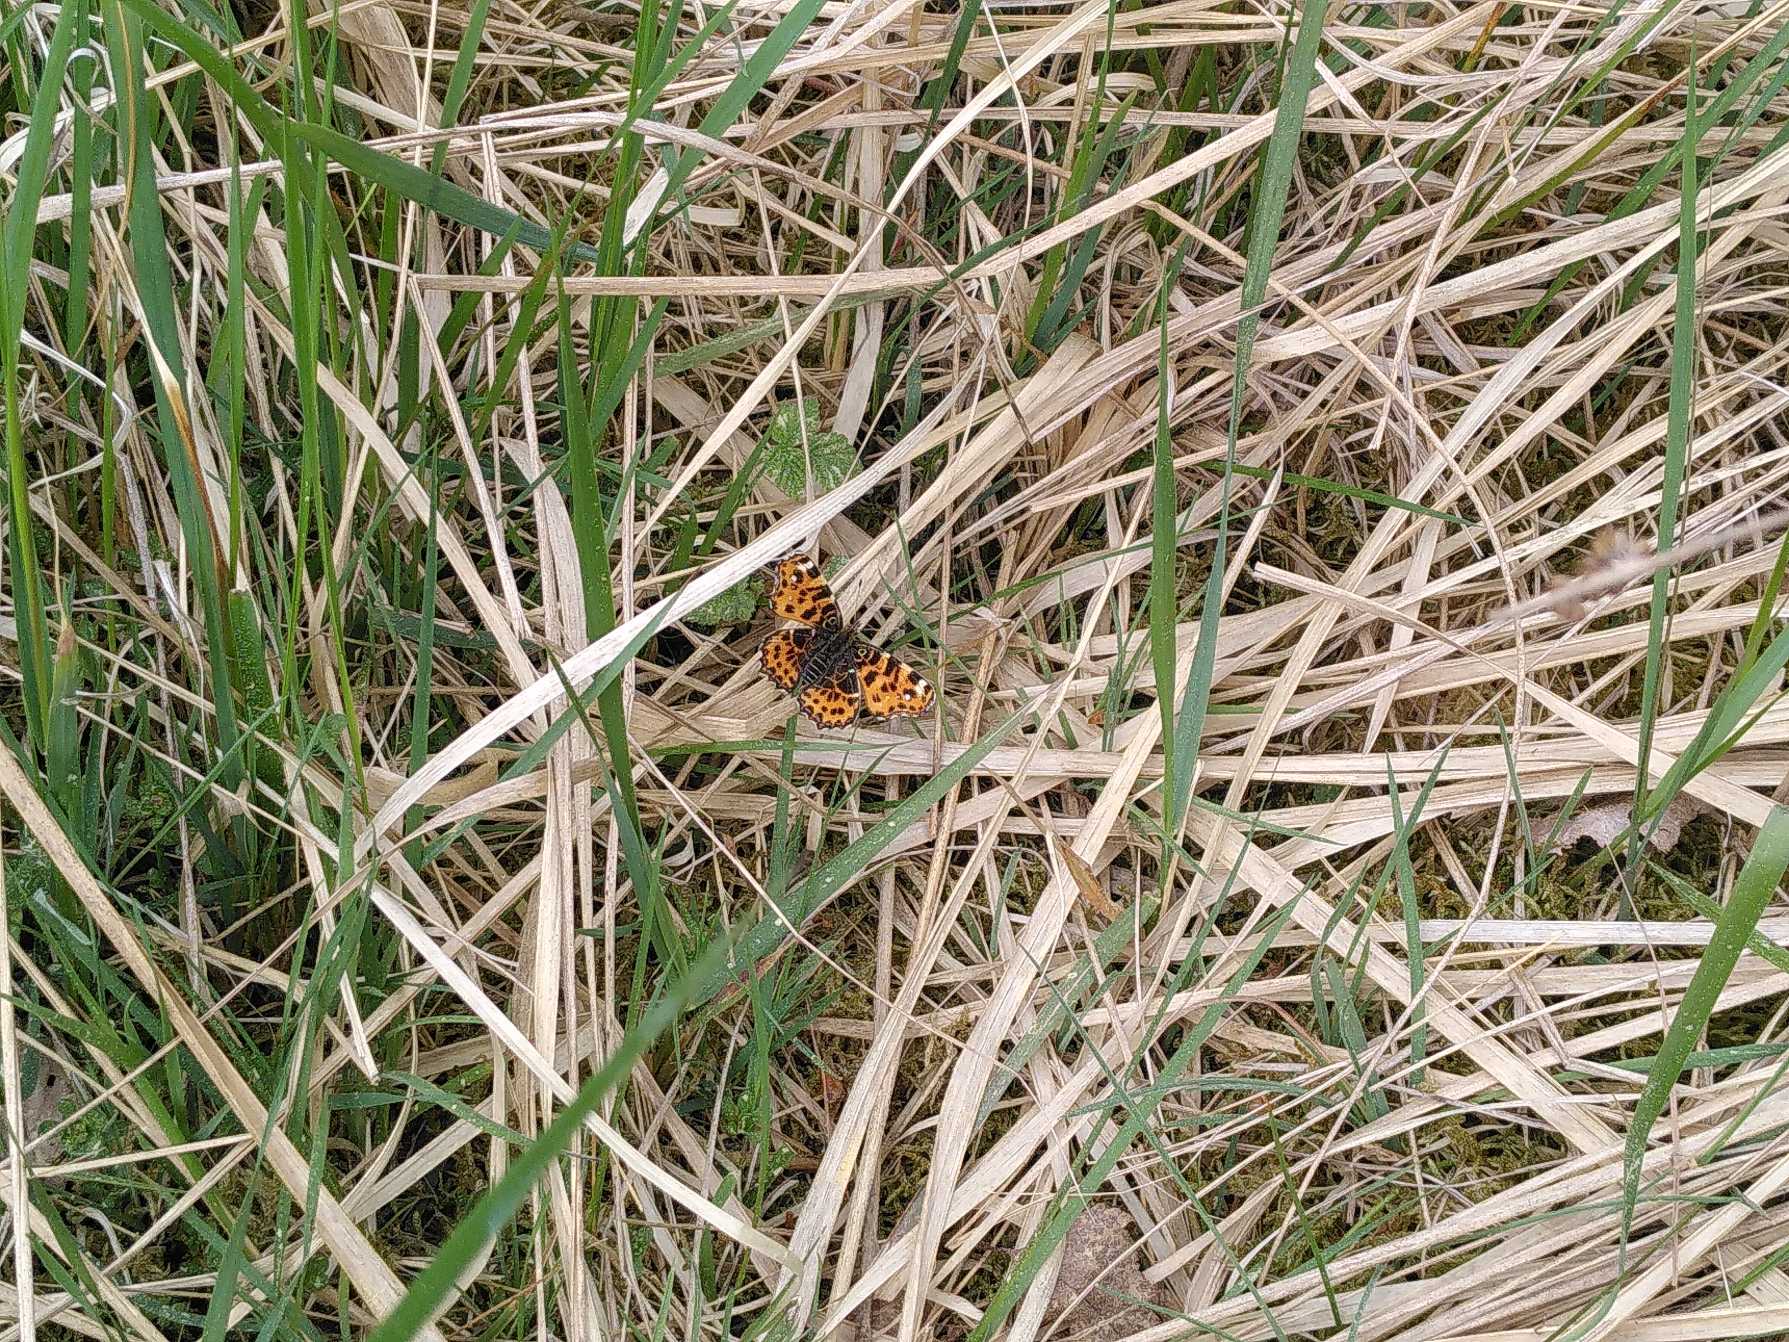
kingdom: Animalia
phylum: Arthropoda
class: Insecta
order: Lepidoptera
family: Nymphalidae
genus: Araschnia
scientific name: Araschnia levana
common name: Nældesommerfugl
